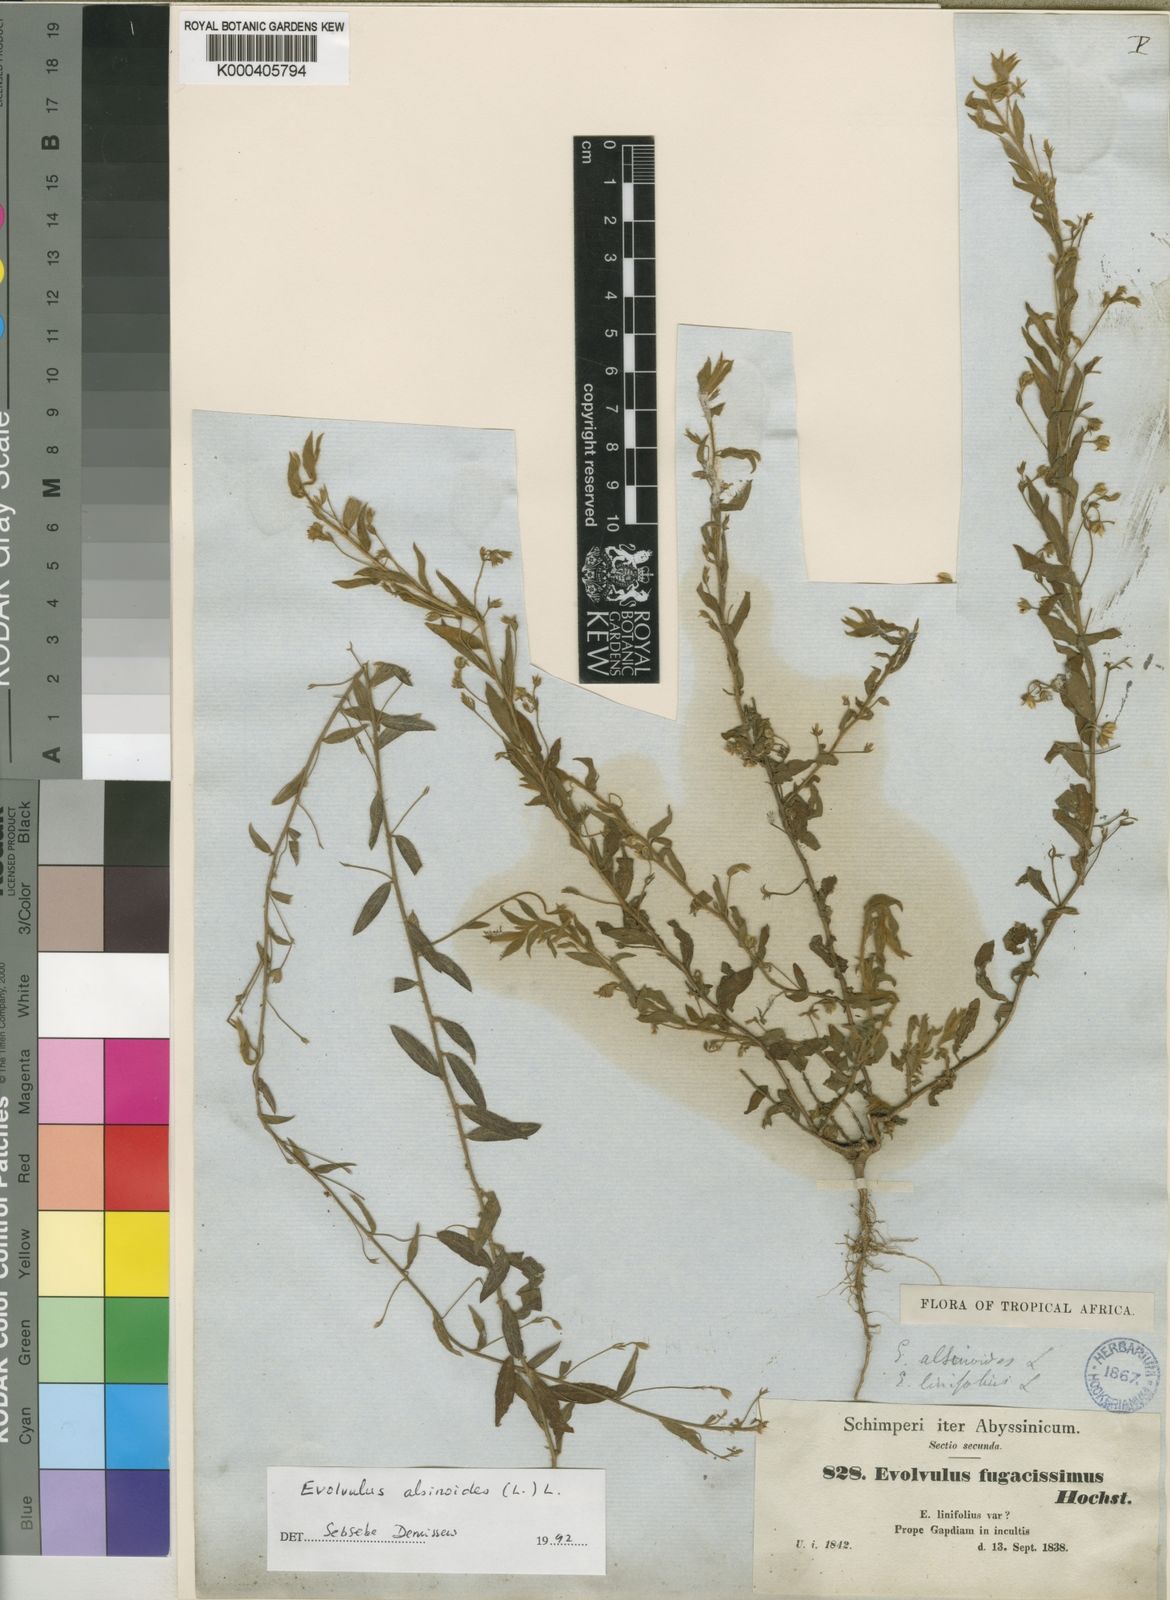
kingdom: Plantae
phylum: Tracheophyta
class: Magnoliopsida
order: Solanales
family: Convolvulaceae
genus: Evolvulus
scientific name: Evolvulus alsinoides
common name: Slender dwarf morning-glory
